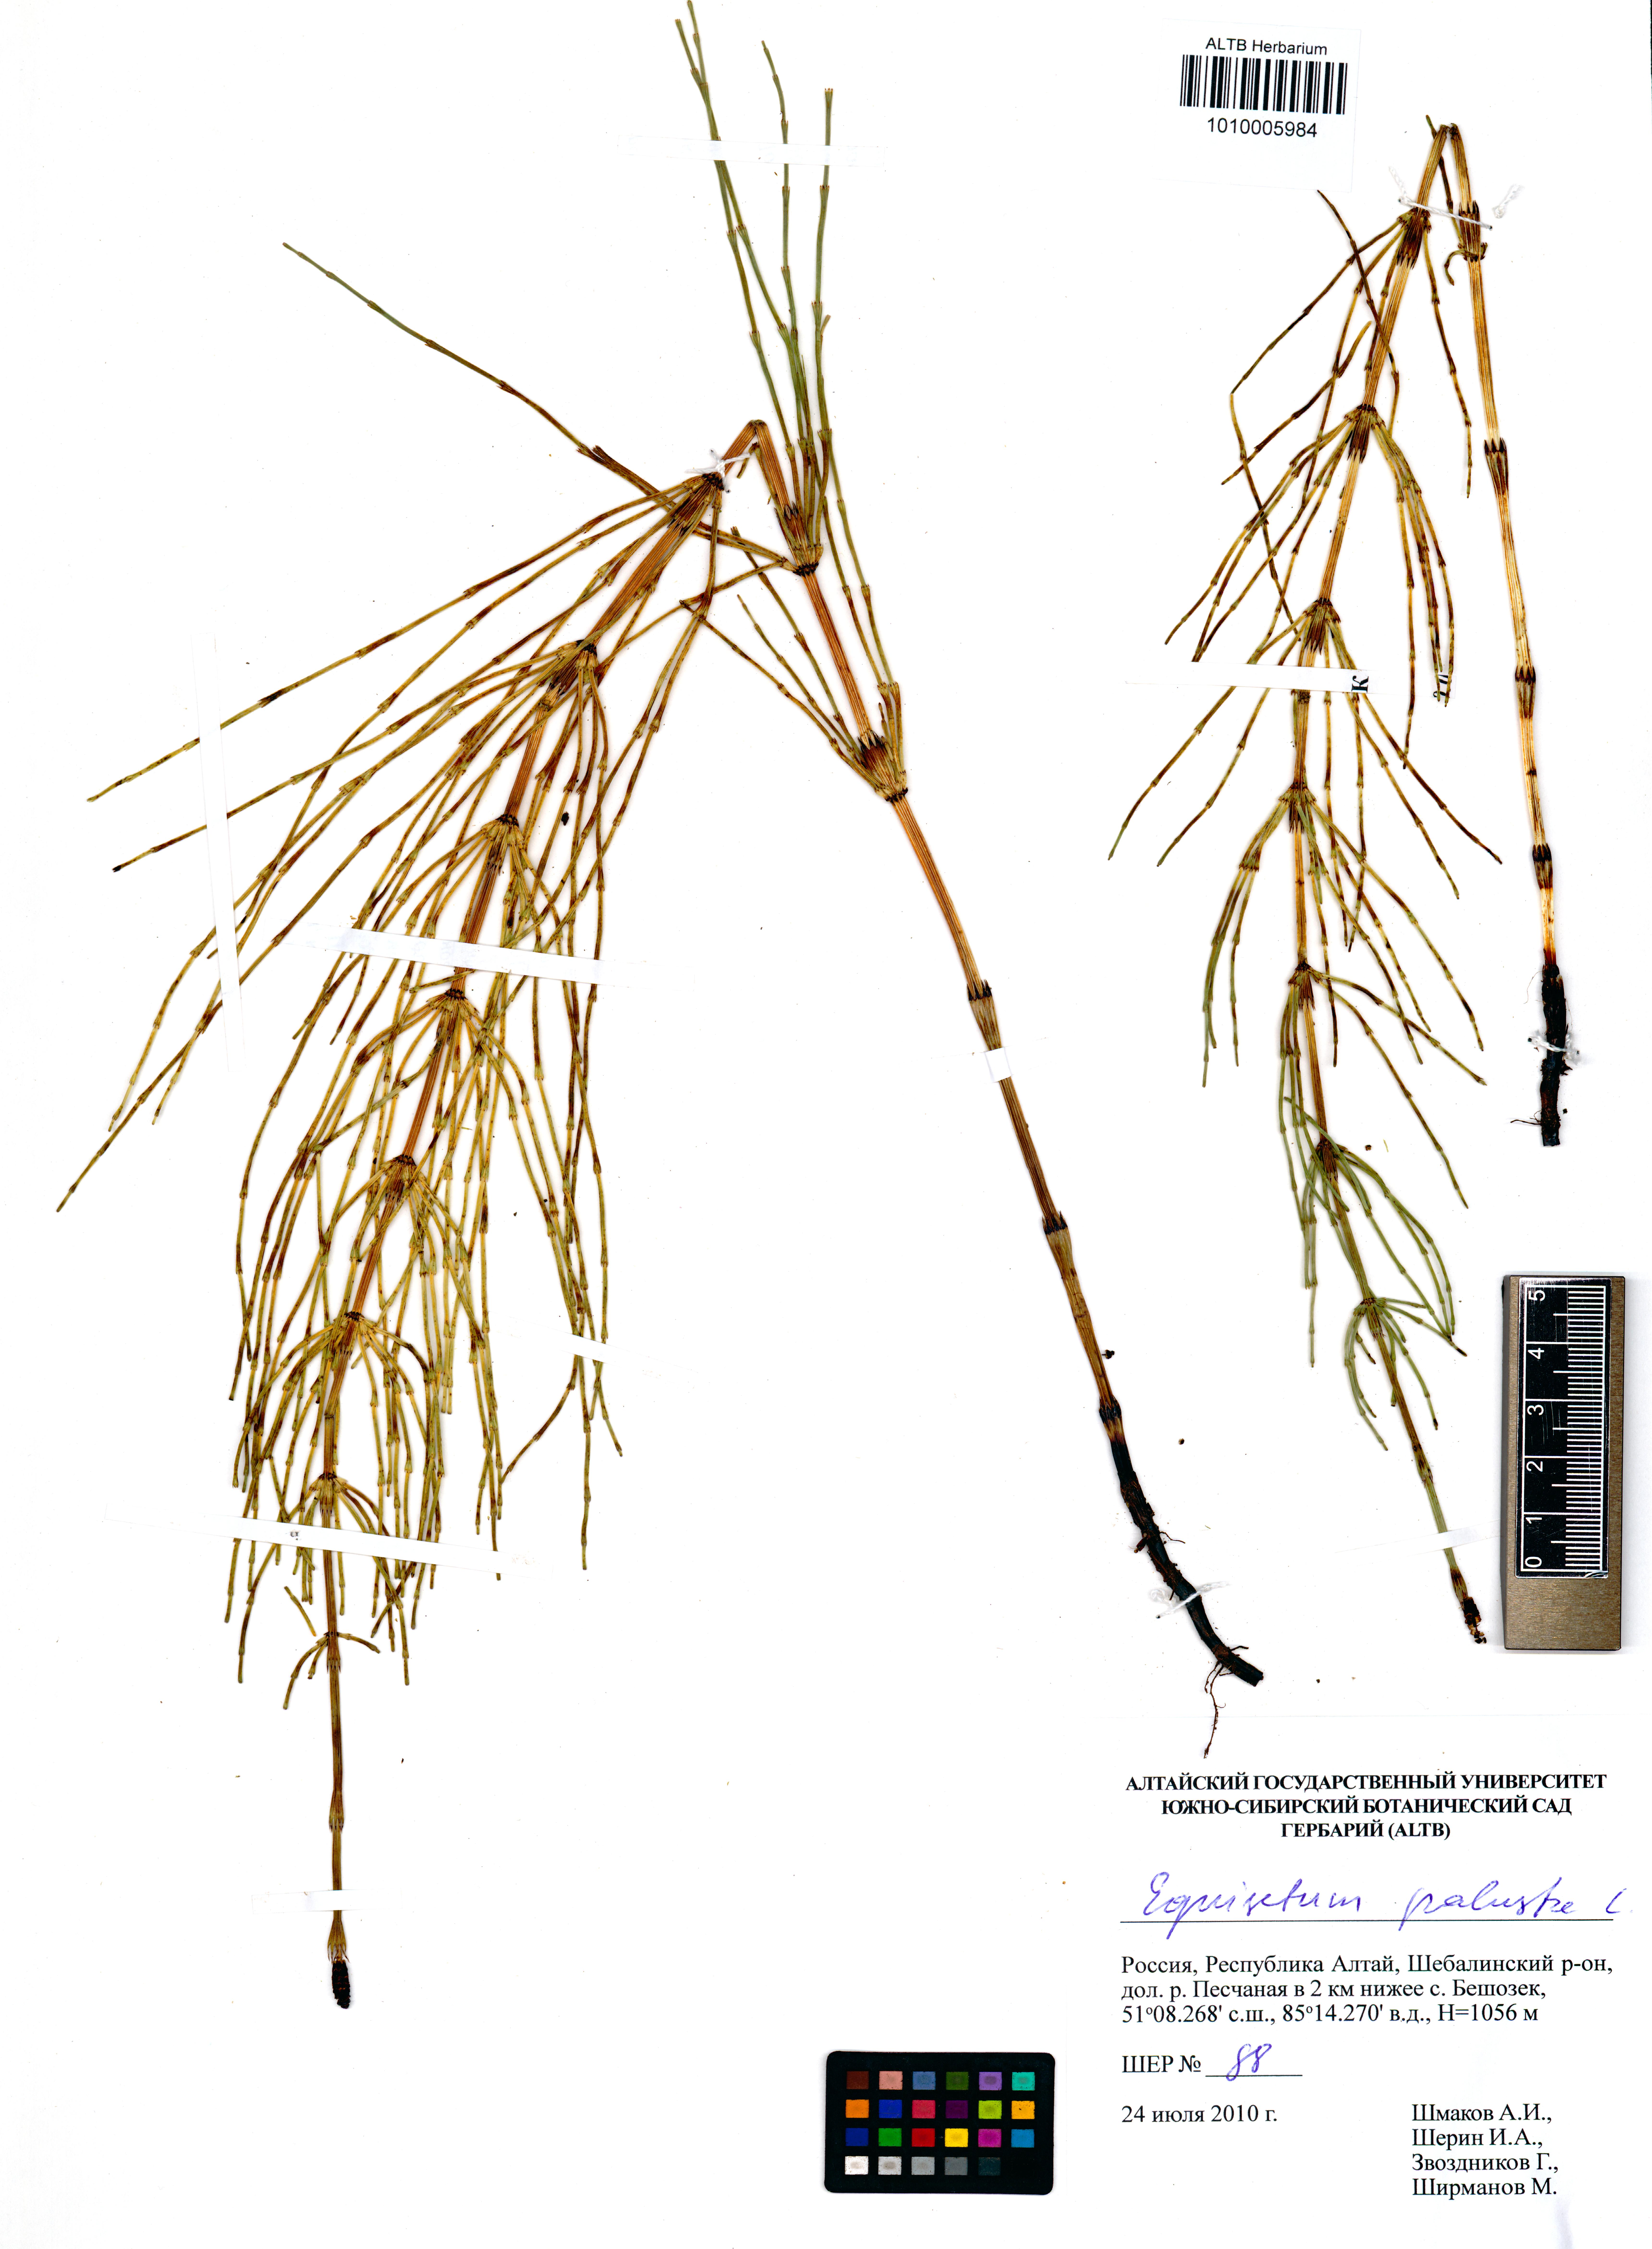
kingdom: Plantae
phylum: Tracheophyta
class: Polypodiopsida
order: Equisetales
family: Equisetaceae
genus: Equisetum
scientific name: Equisetum palustre
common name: Marsh horsetail
